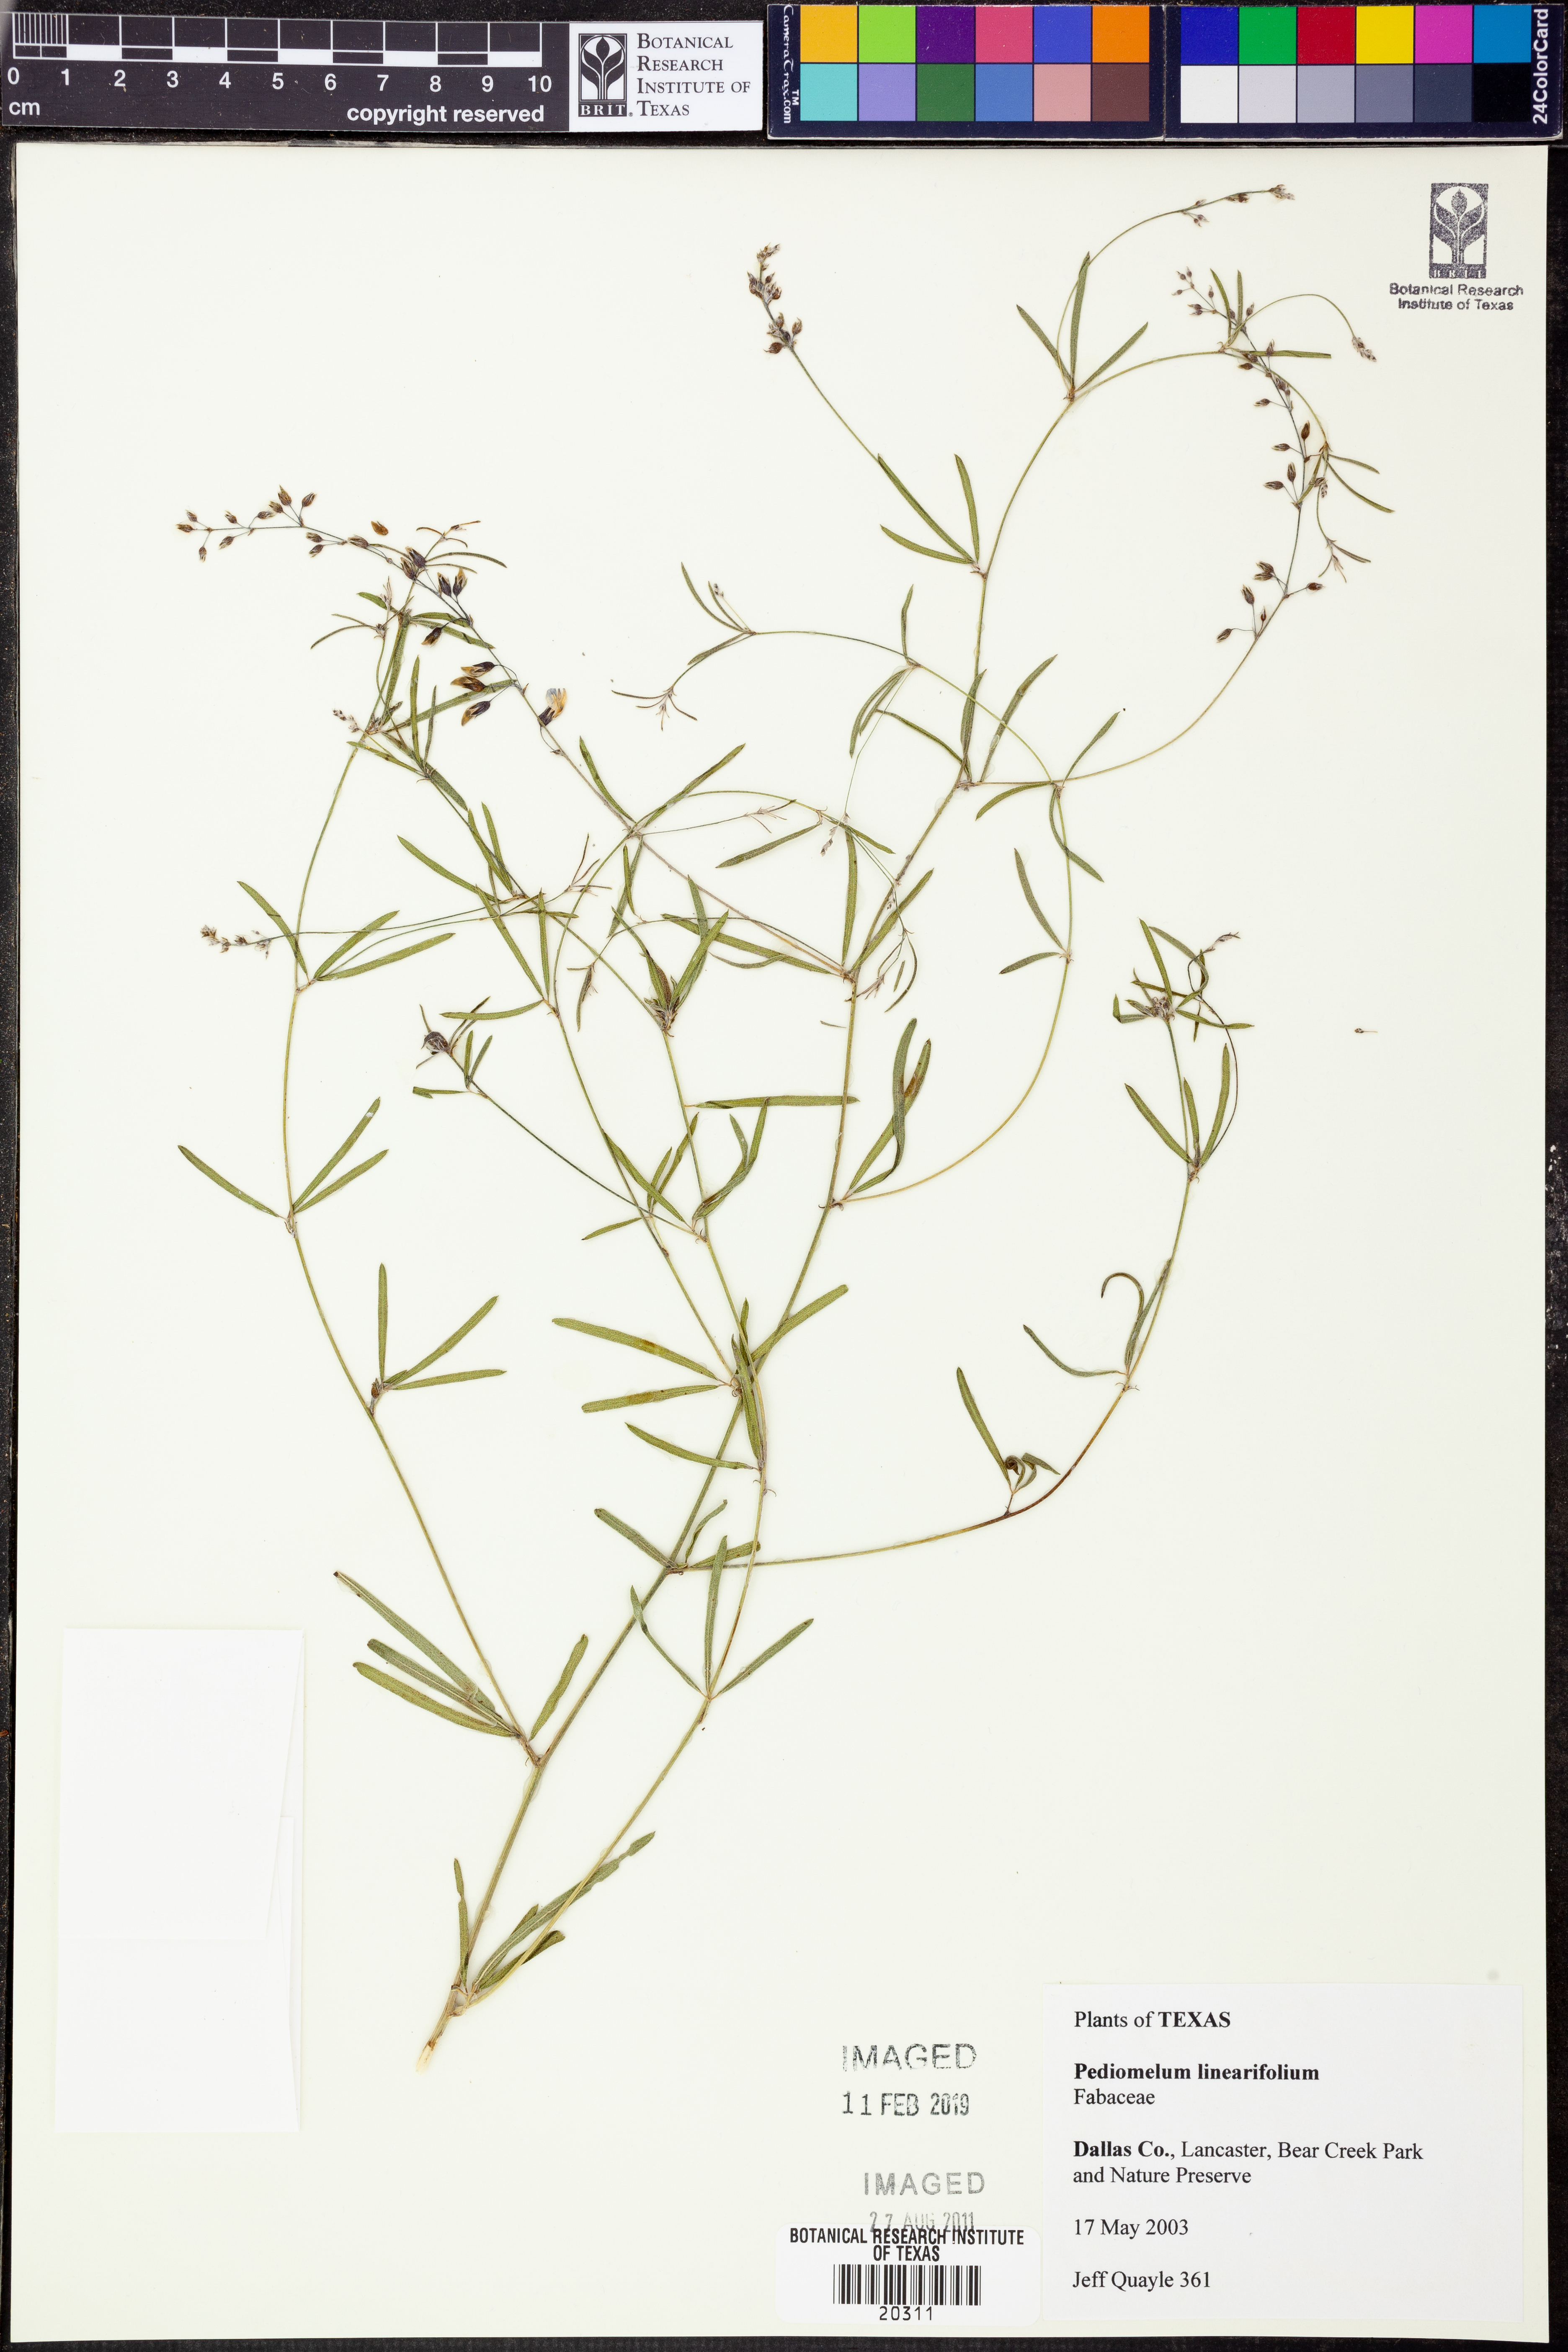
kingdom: Plantae
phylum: Tracheophyta
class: Magnoliopsida
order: Fabales
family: Fabaceae
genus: Pediomelum
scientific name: Pediomelum linearifolium
